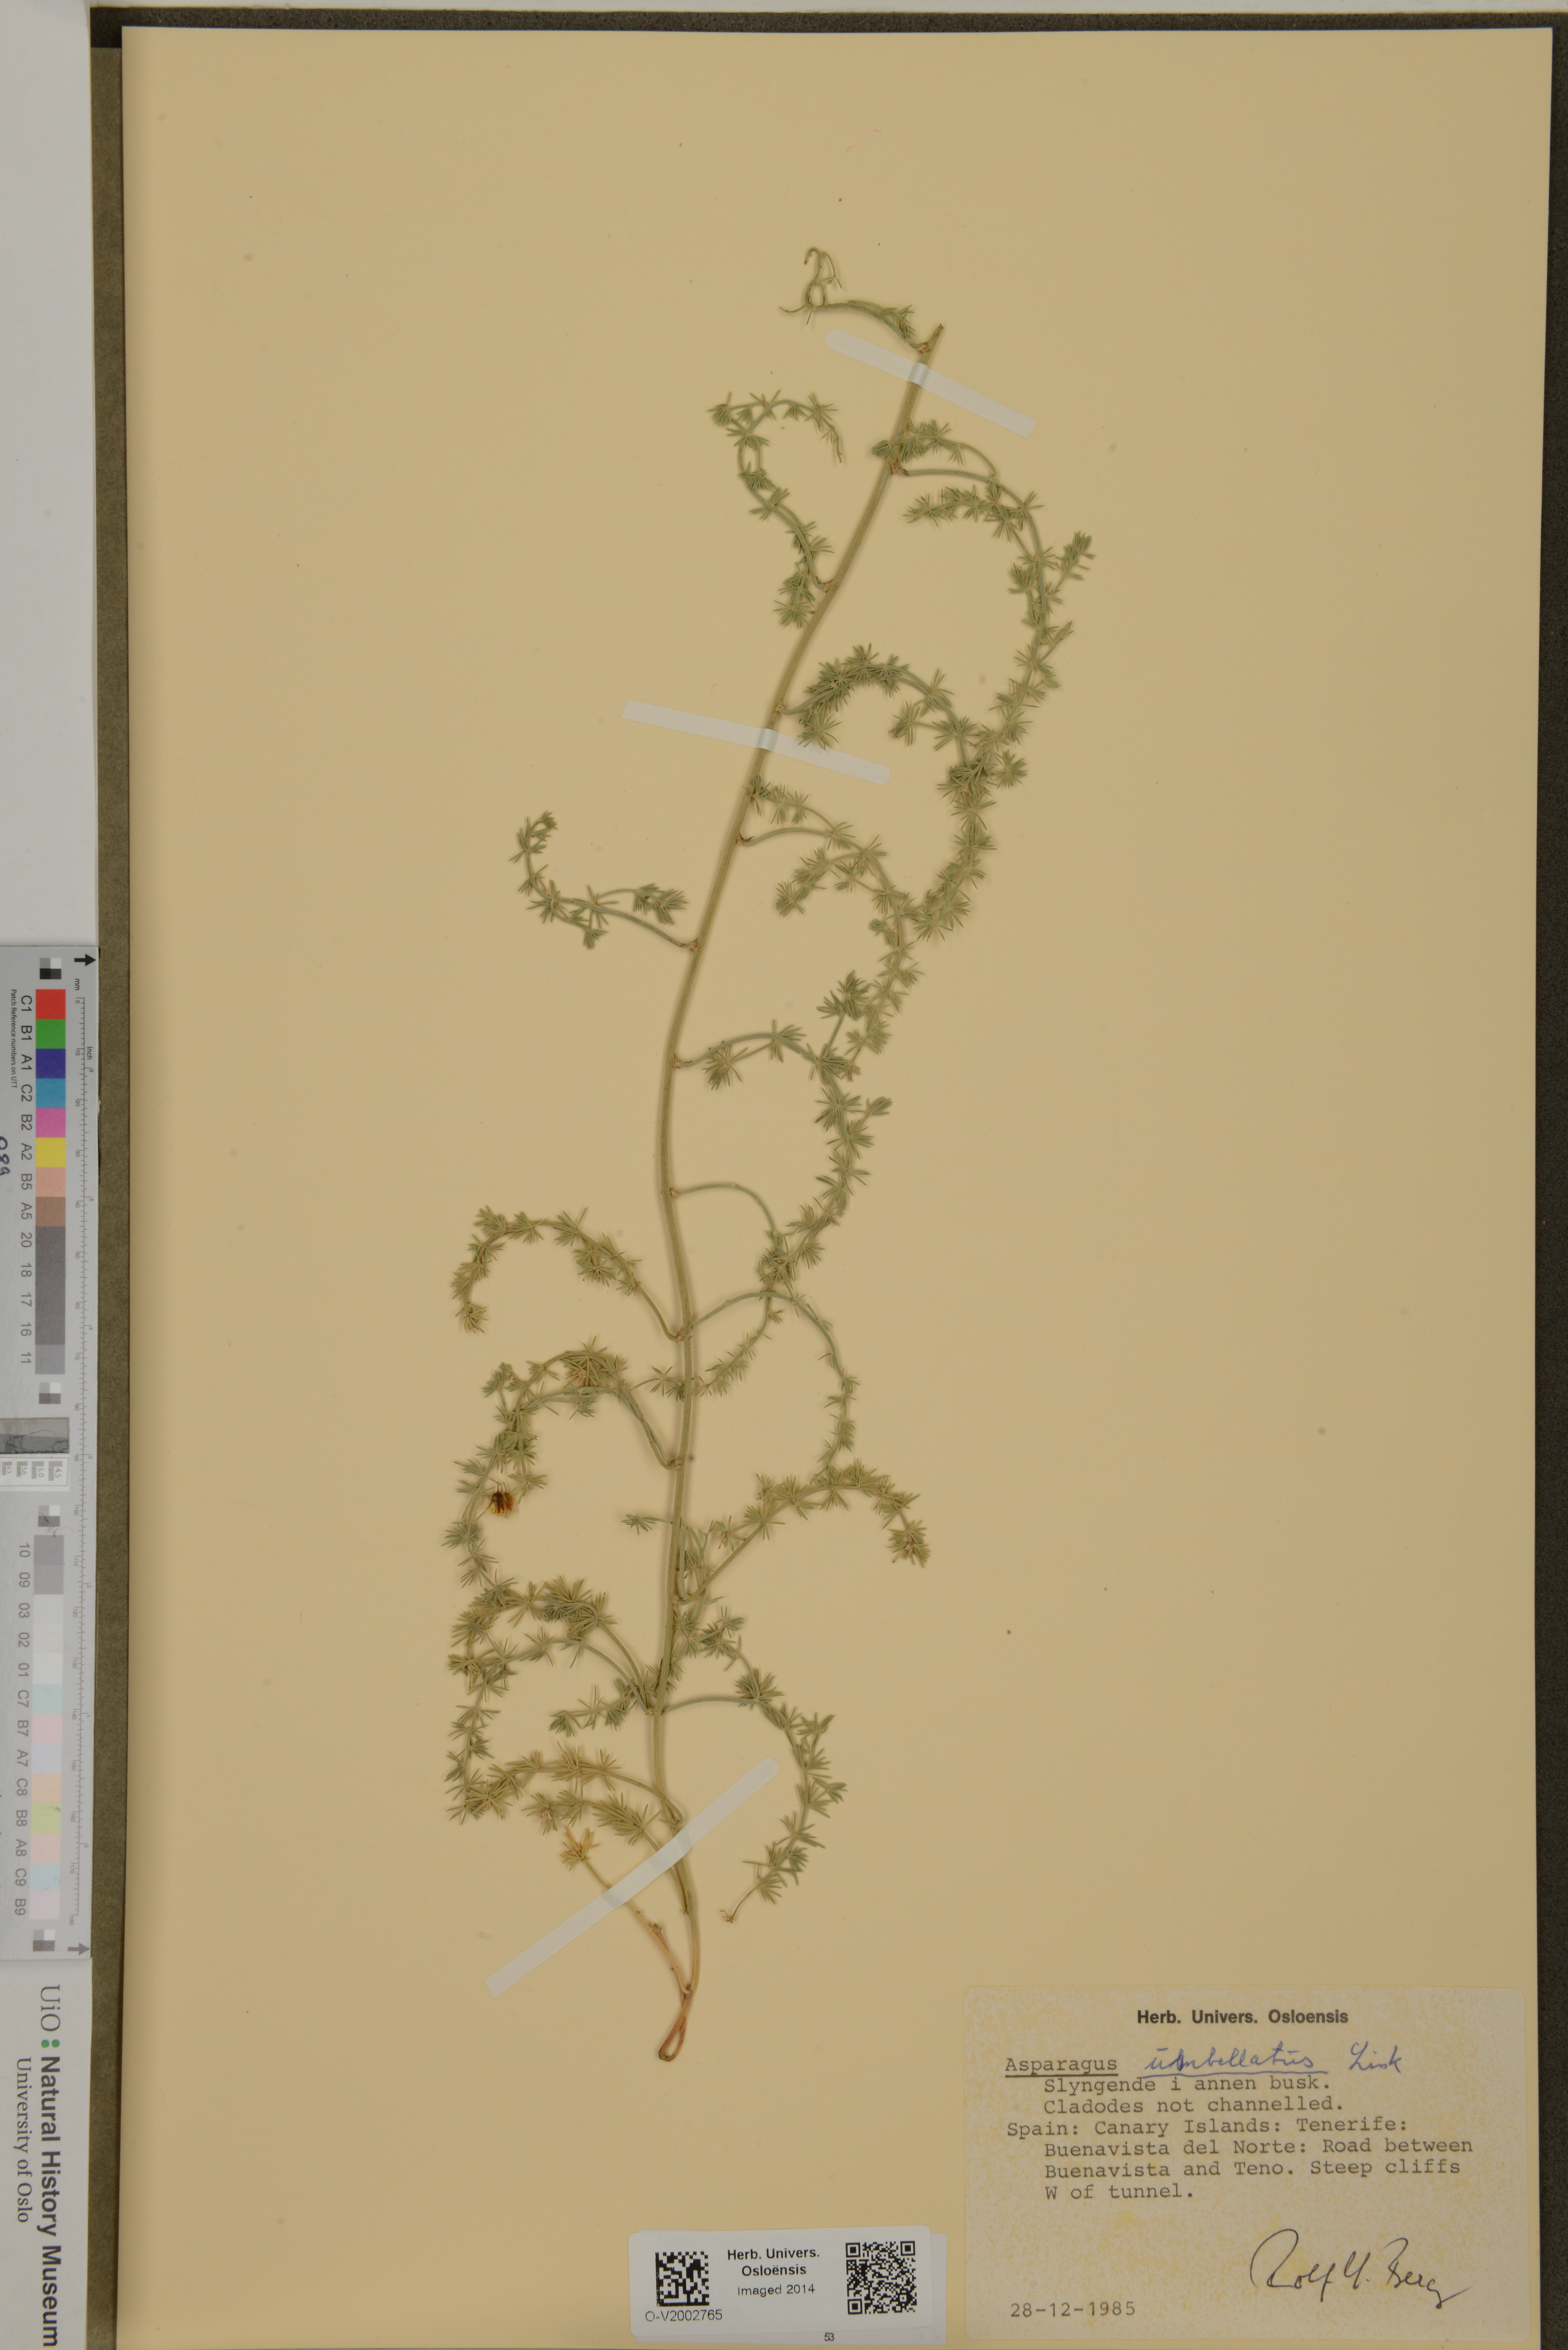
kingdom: Plantae
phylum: Tracheophyta
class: Liliopsida
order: Asparagales
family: Asparagaceae
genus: Asparagus
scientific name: Asparagus umbellatus
